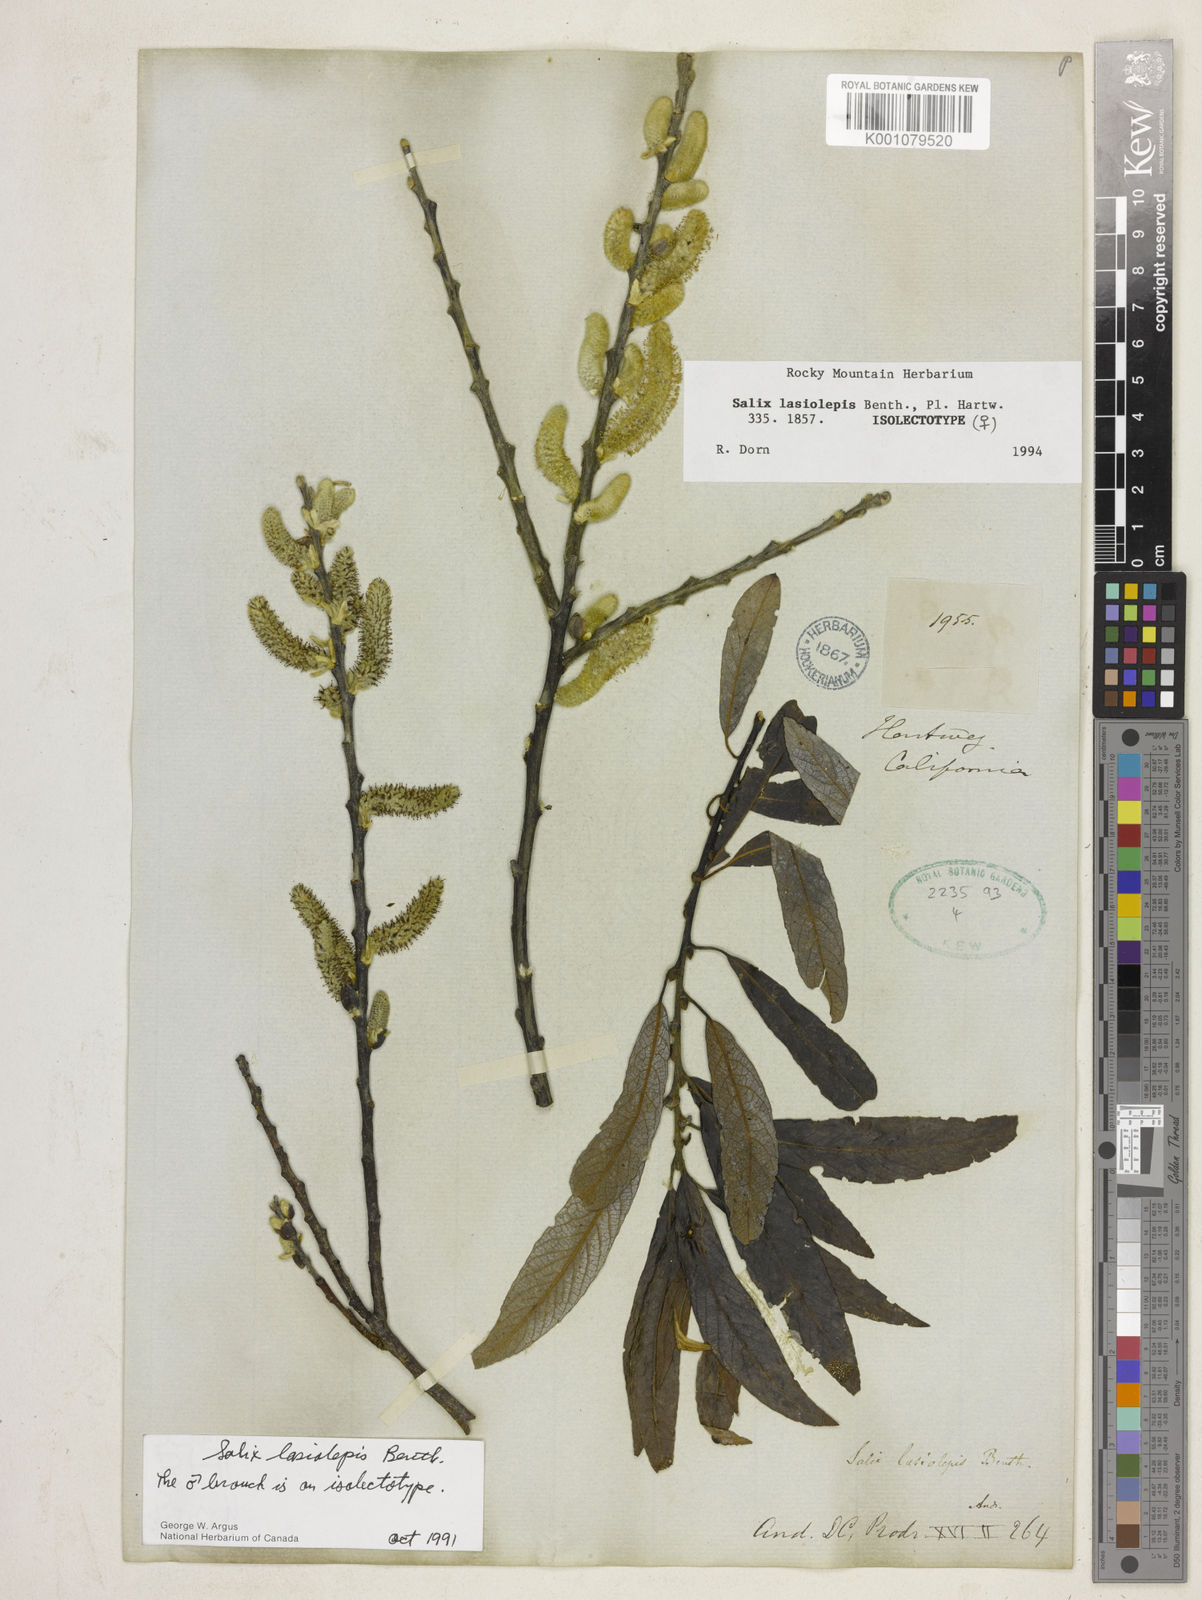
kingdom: Plantae
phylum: Tracheophyta
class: Magnoliopsida
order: Malpighiales
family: Salicaceae
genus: Salix
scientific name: Salix lasiolepis
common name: Arroyo willow
